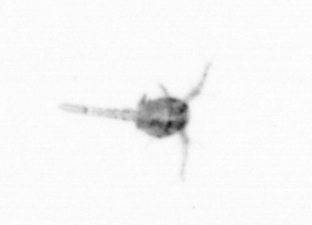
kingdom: Animalia
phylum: Arthropoda
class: Copepoda
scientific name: Copepoda
